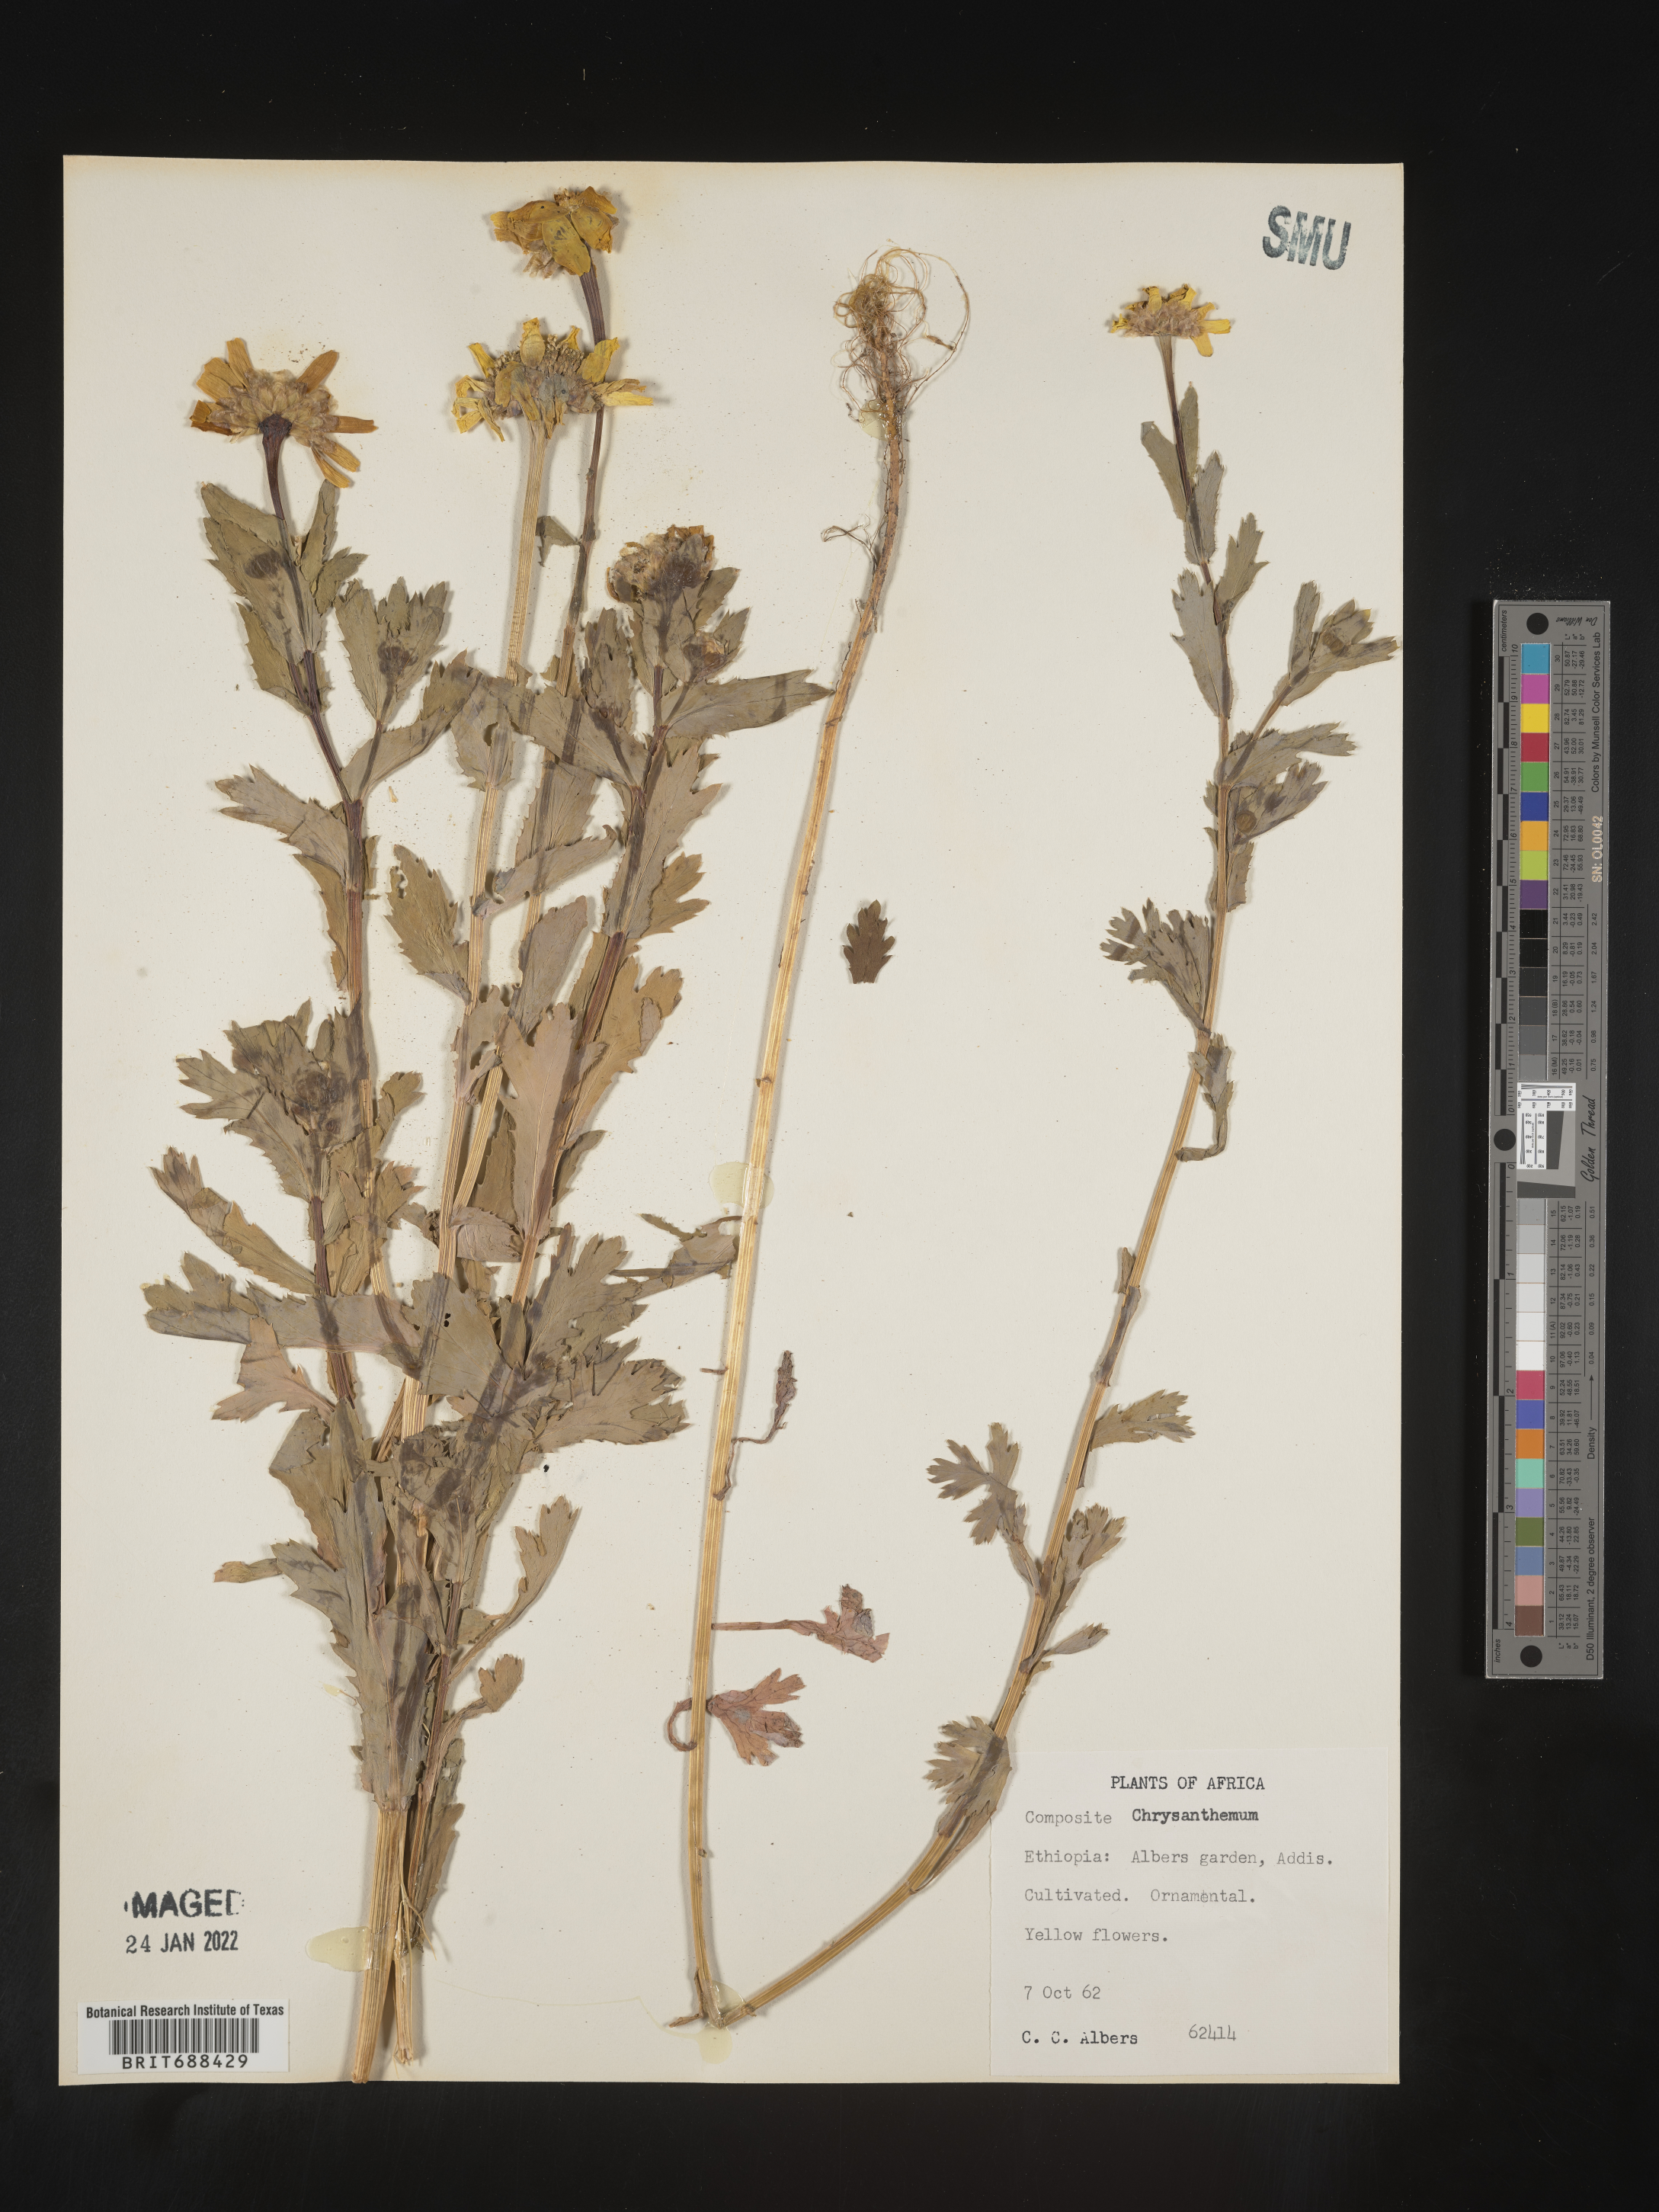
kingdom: Plantae
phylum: Tracheophyta
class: Magnoliopsida
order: Asterales
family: Asteraceae
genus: Chrysanthemum
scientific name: Chrysanthemum
